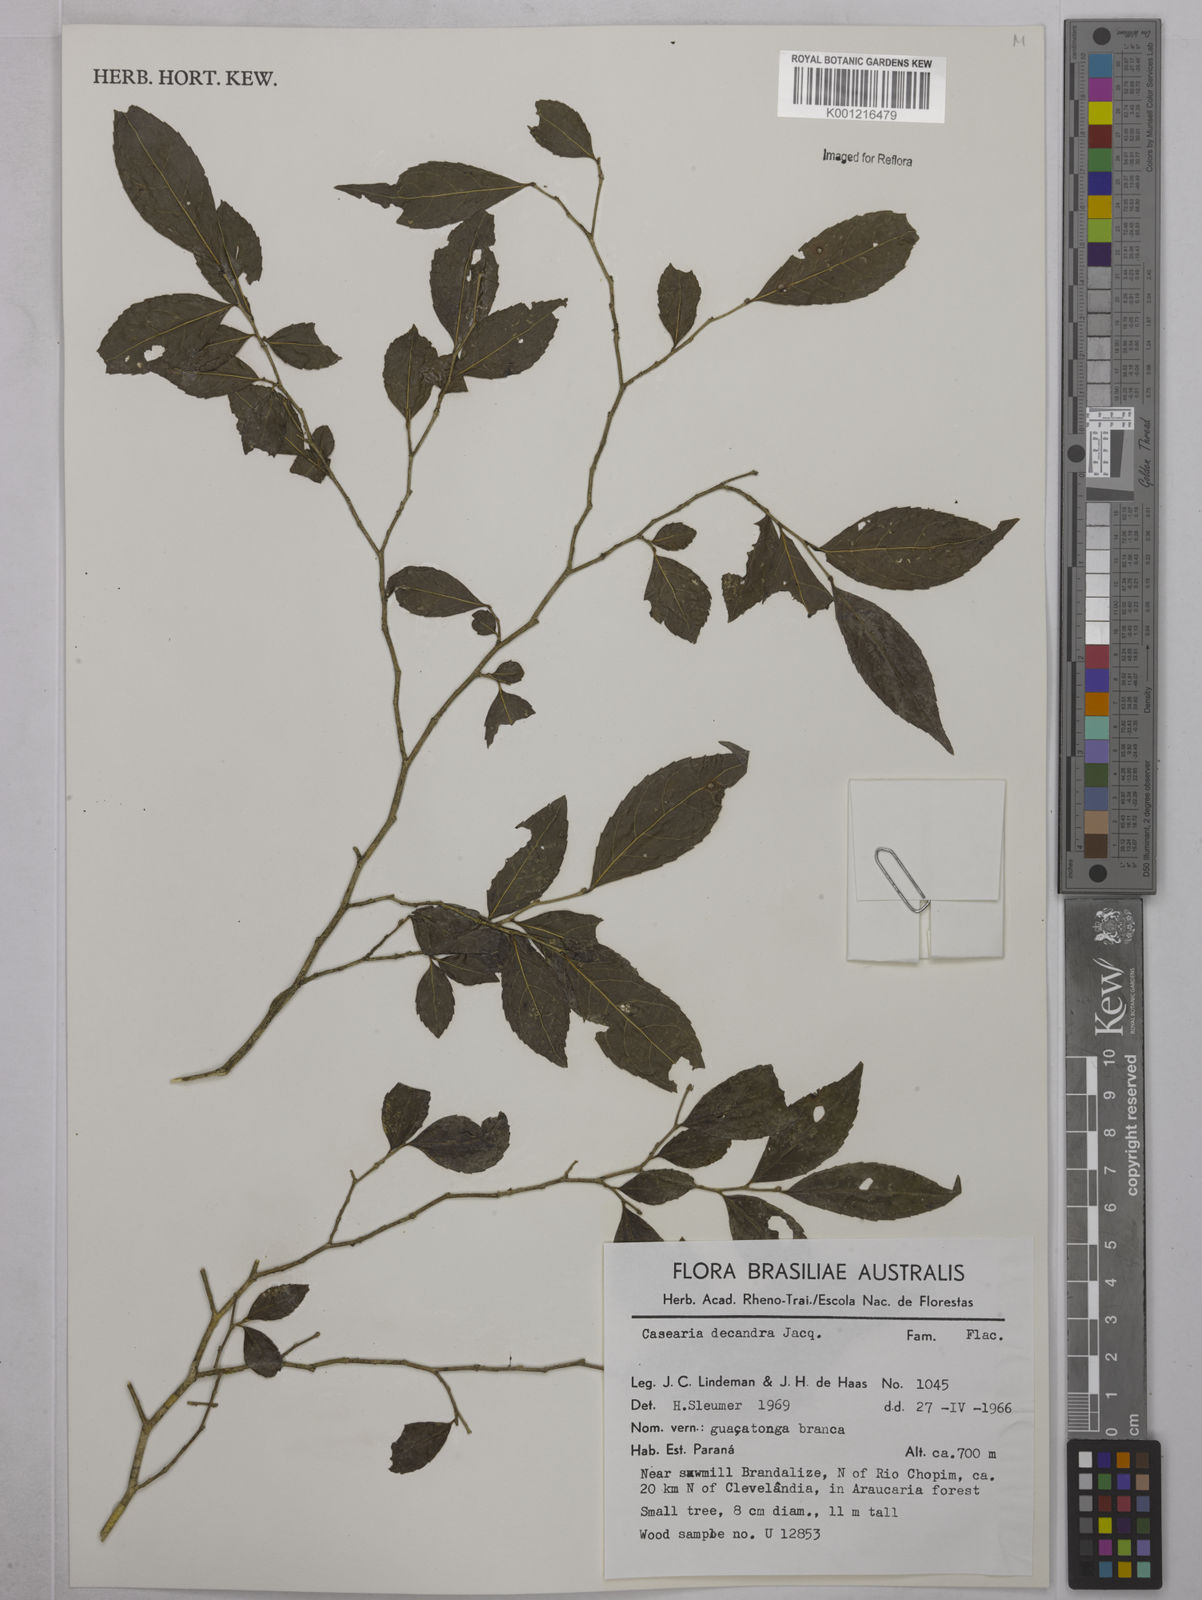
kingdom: Plantae
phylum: Tracheophyta
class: Magnoliopsida
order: Malpighiales
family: Salicaceae
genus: Casearia
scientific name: Casearia decandra
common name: Crack open
